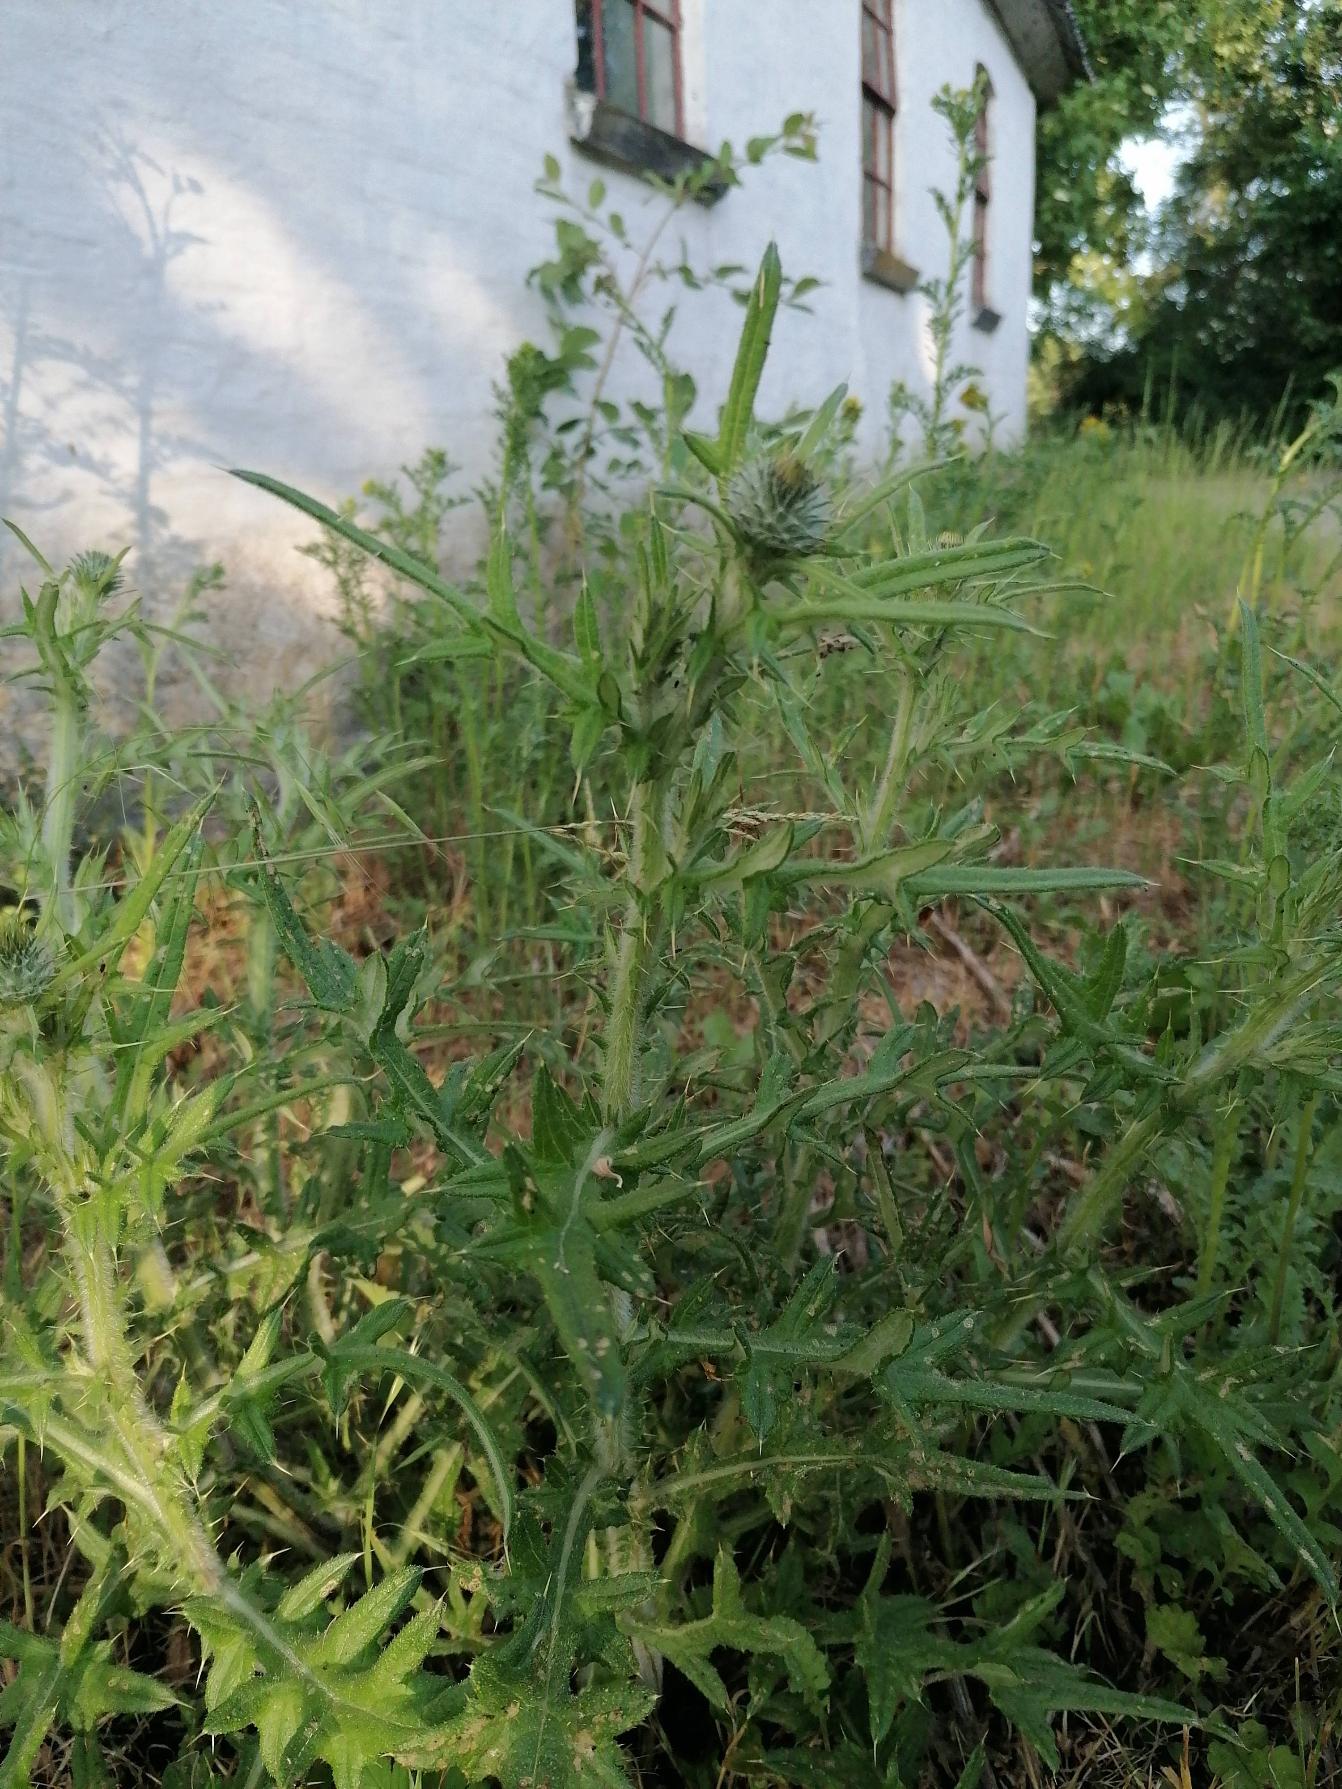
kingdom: Plantae
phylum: Tracheophyta
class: Magnoliopsida
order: Asterales
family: Asteraceae
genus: Cirsium
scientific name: Cirsium vulgare
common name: Horse-tidsel
